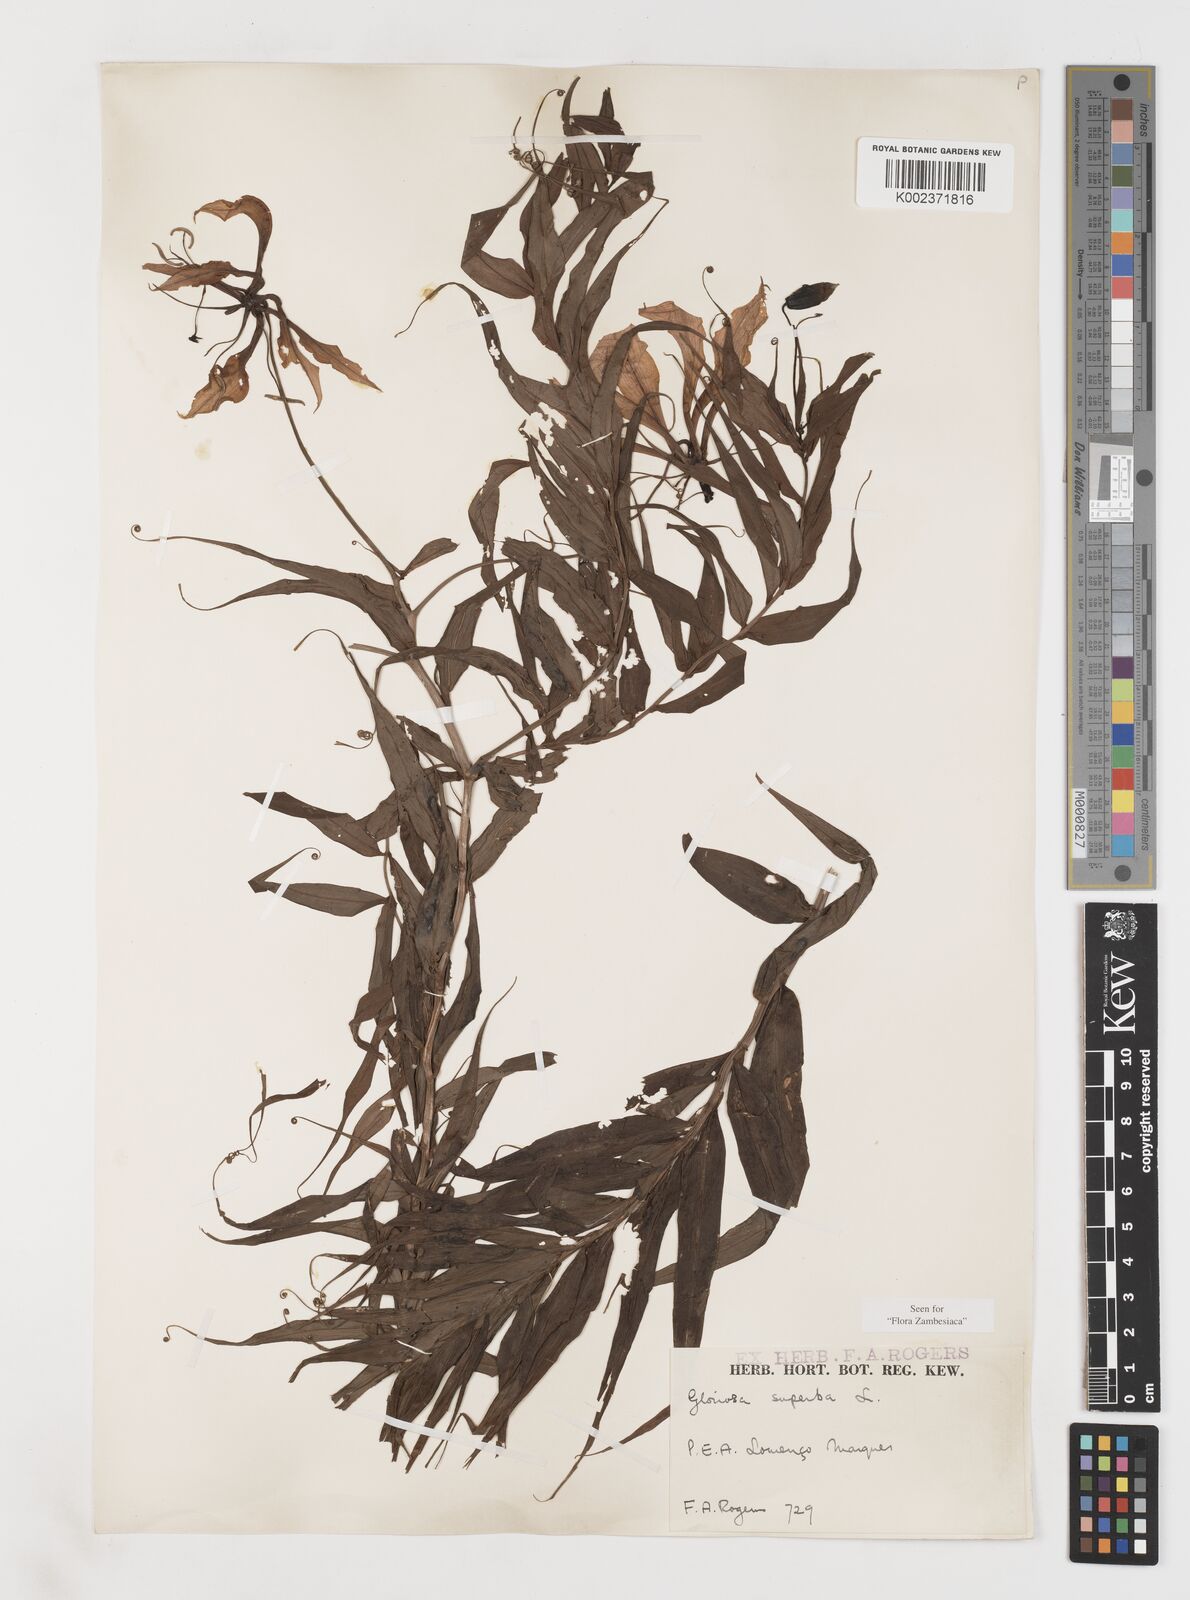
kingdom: Plantae
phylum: Tracheophyta
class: Liliopsida
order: Liliales
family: Colchicaceae
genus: Gloriosa
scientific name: Gloriosa simplex
